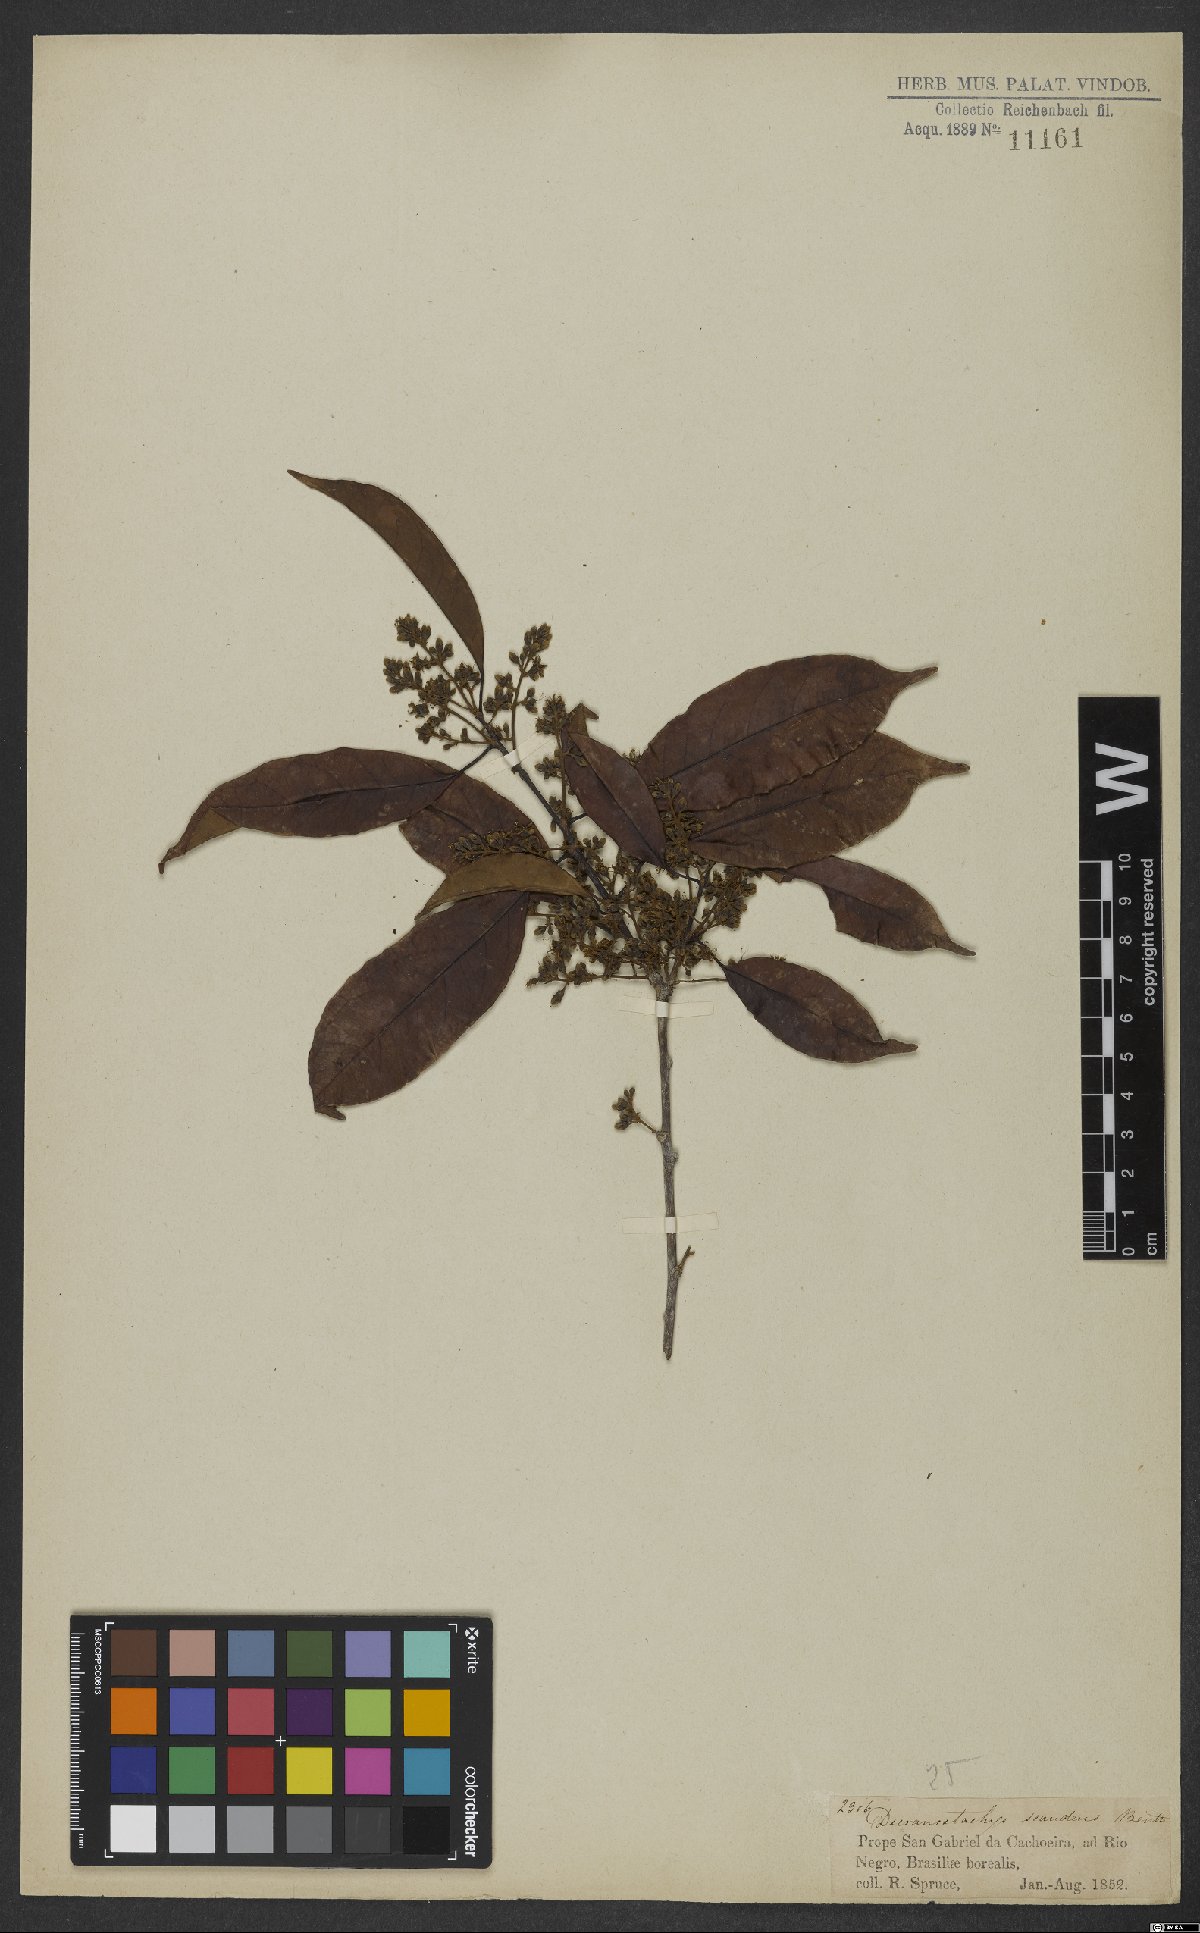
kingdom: Plantae
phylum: Tracheophyta
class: Magnoliopsida
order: Solanales
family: Convolvulaceae
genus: Dicranostyles
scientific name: Dicranostyles scandens
